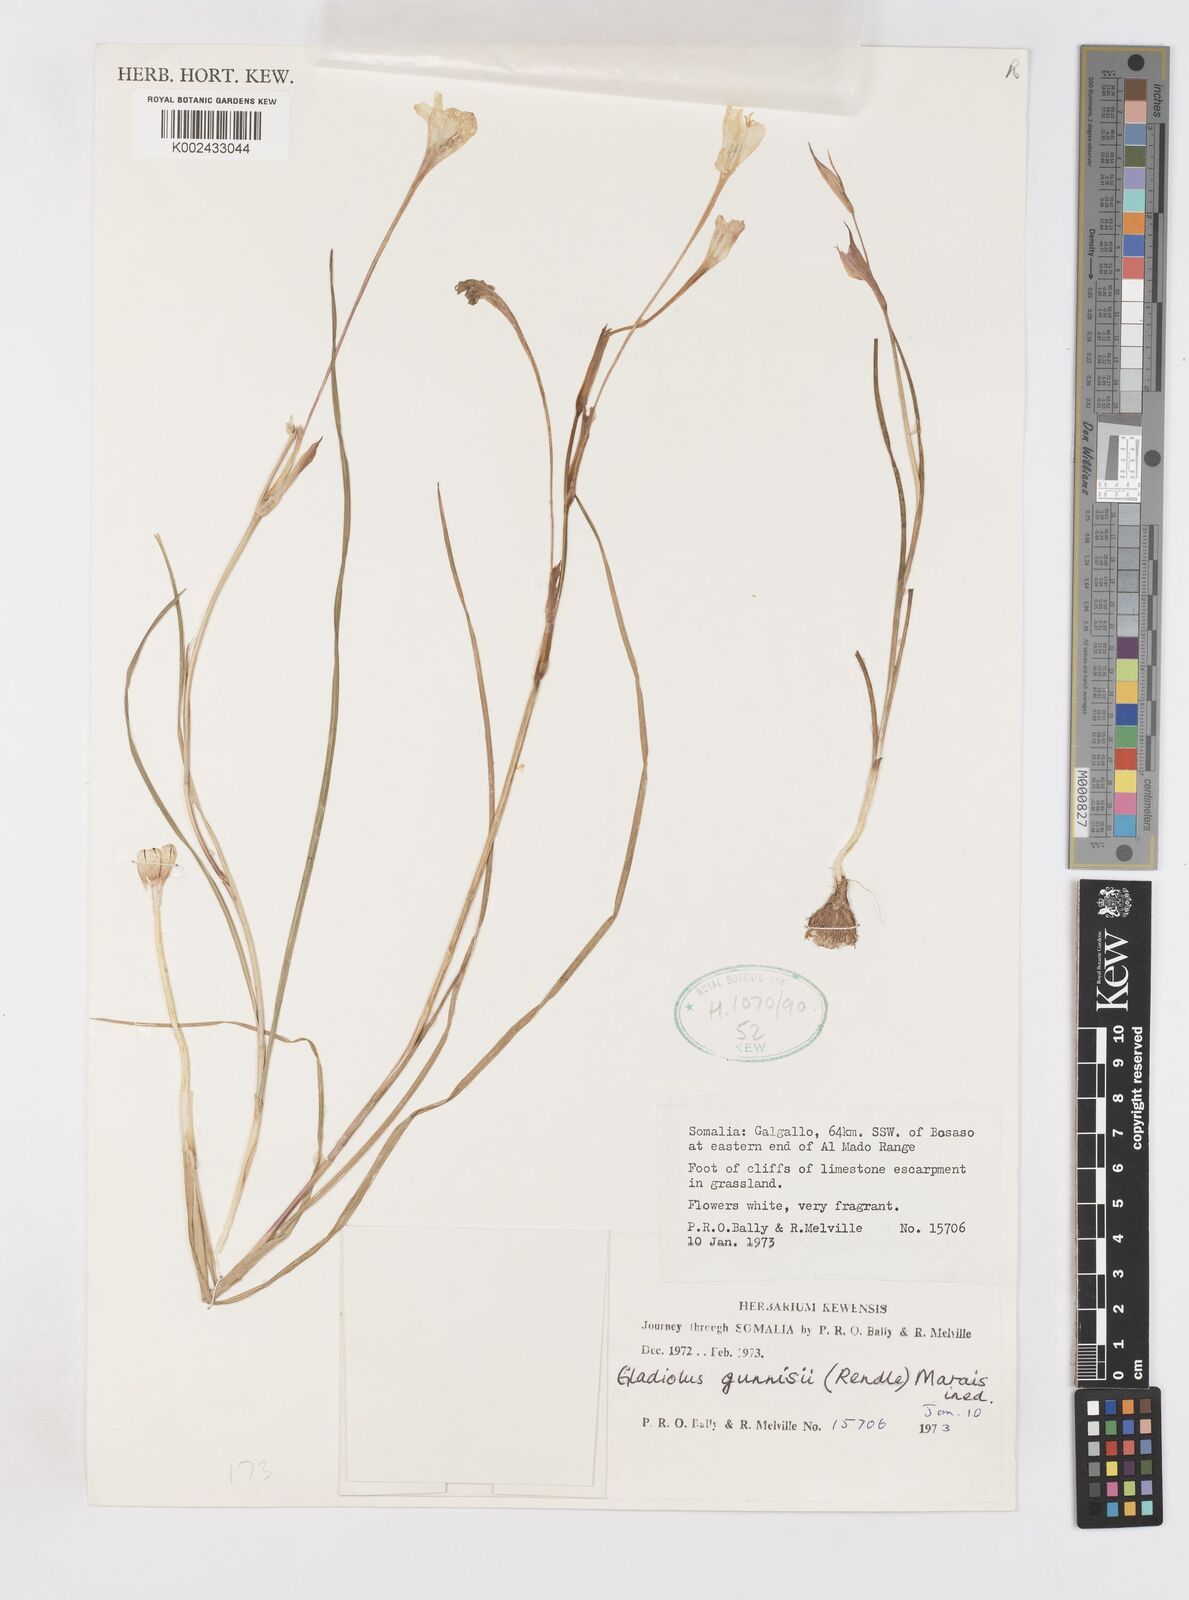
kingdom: Plantae
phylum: Tracheophyta
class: Liliopsida
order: Asparagales
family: Iridaceae
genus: Gladiolus
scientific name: Gladiolus gunnisii
